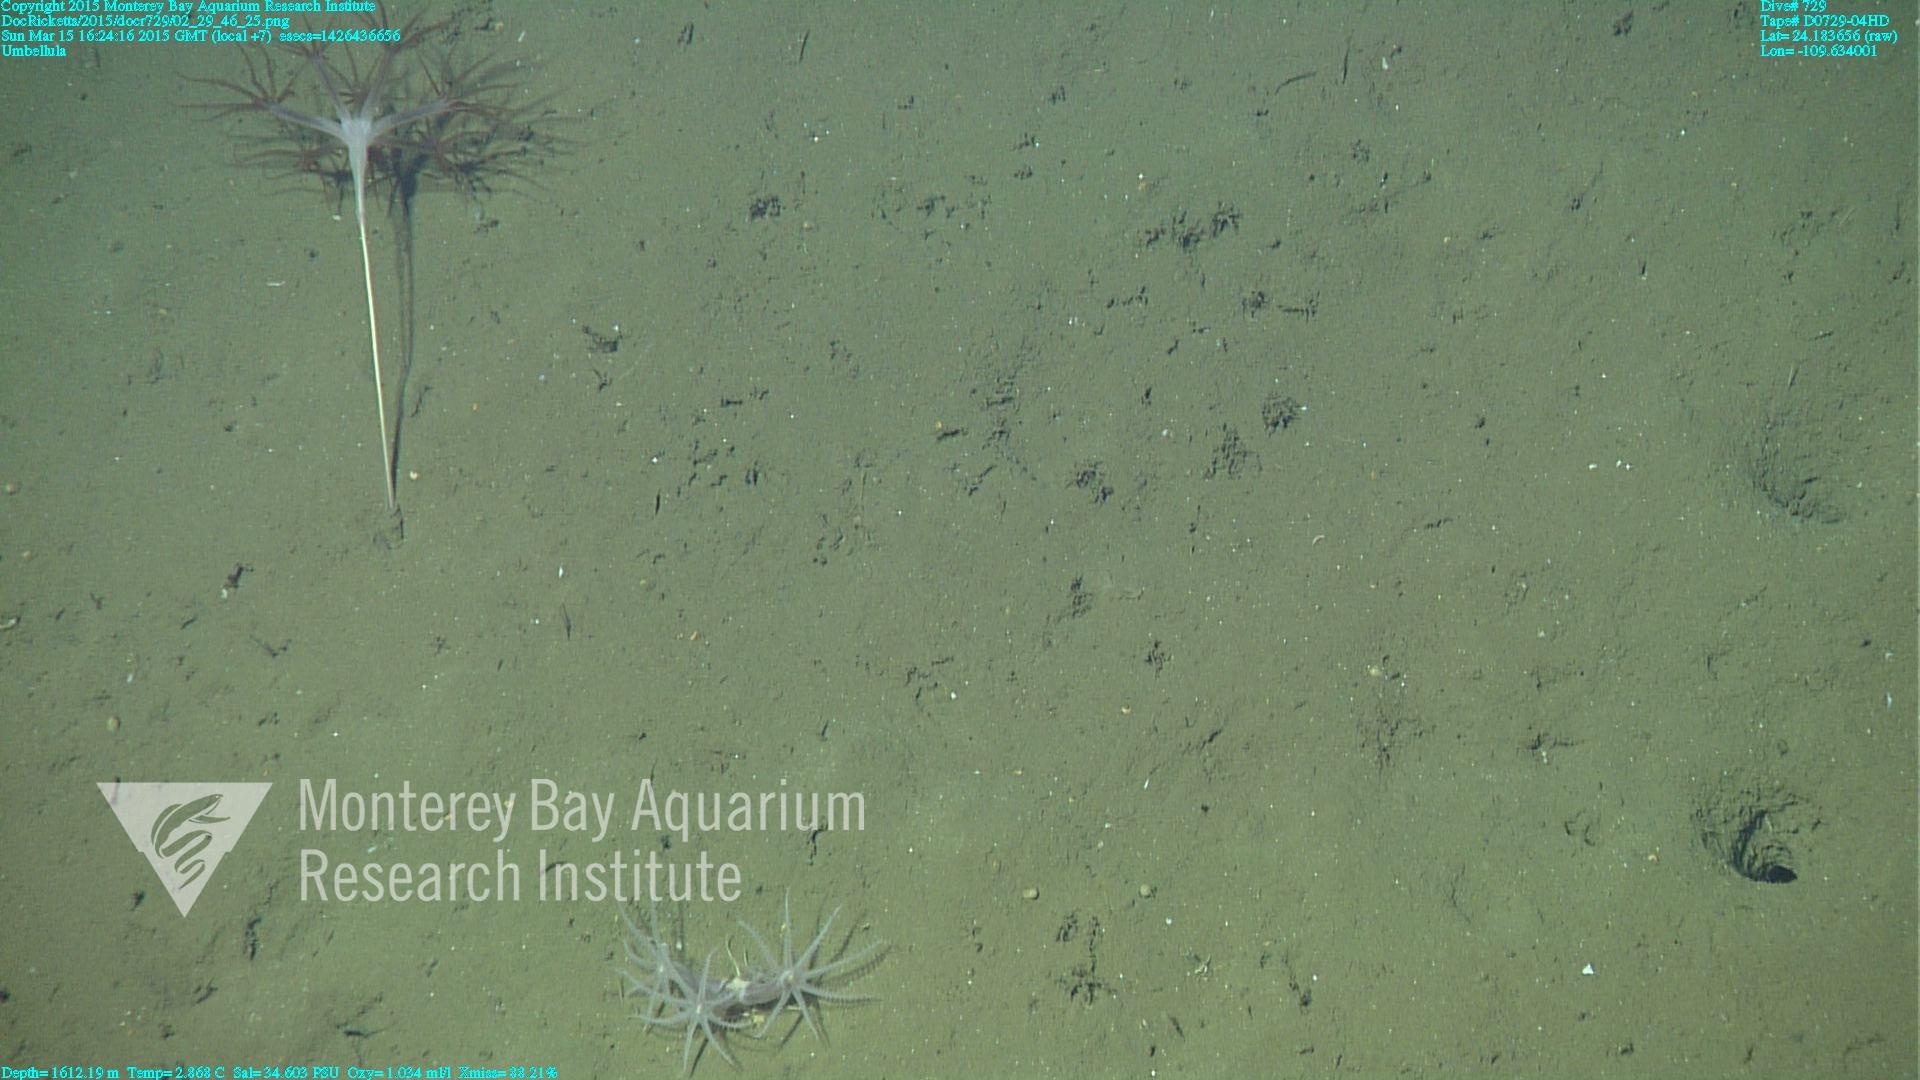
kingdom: Animalia
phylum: Cnidaria
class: Anthozoa
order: Scleralcyonacea
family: Coralliidae
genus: Bathyalcyon
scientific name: Bathyalcyon robustum
